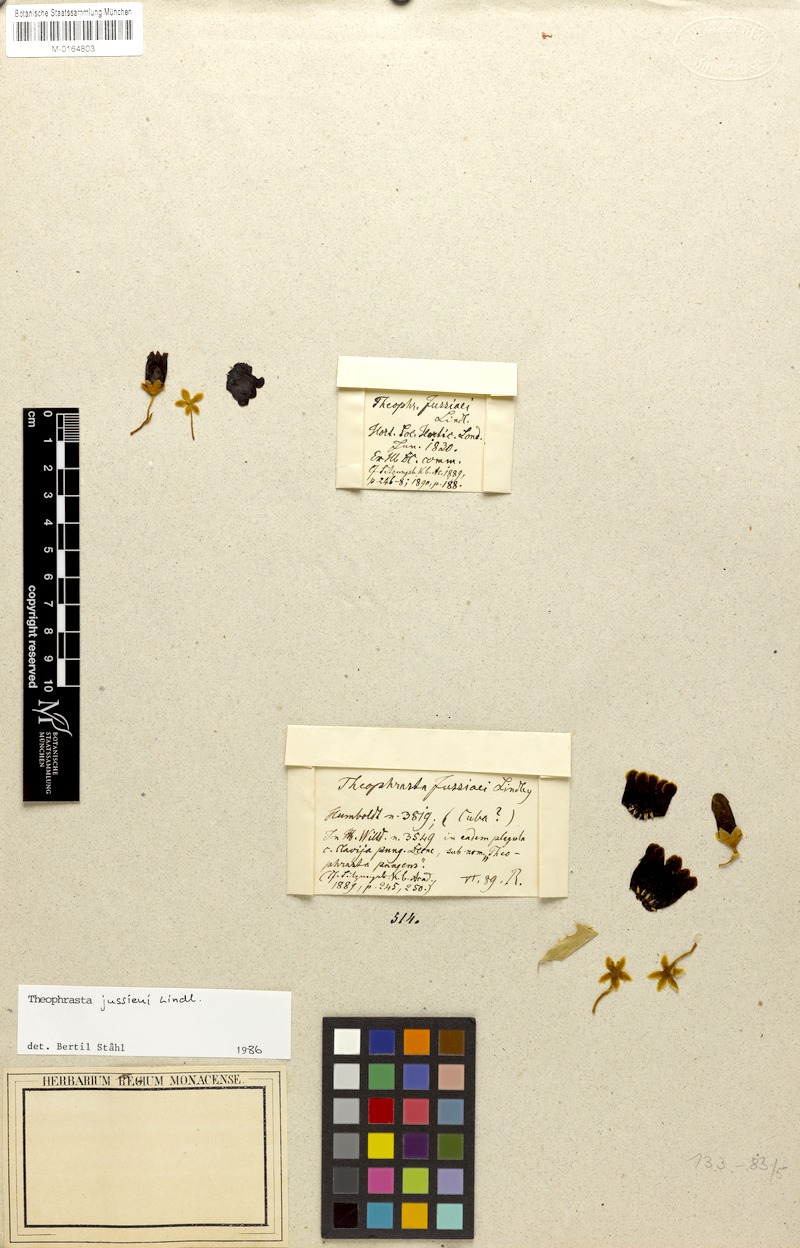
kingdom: Plantae
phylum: Tracheophyta
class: Magnoliopsida
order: Ericales
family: Primulaceae
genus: Theophrasta
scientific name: Theophrasta jussieui
